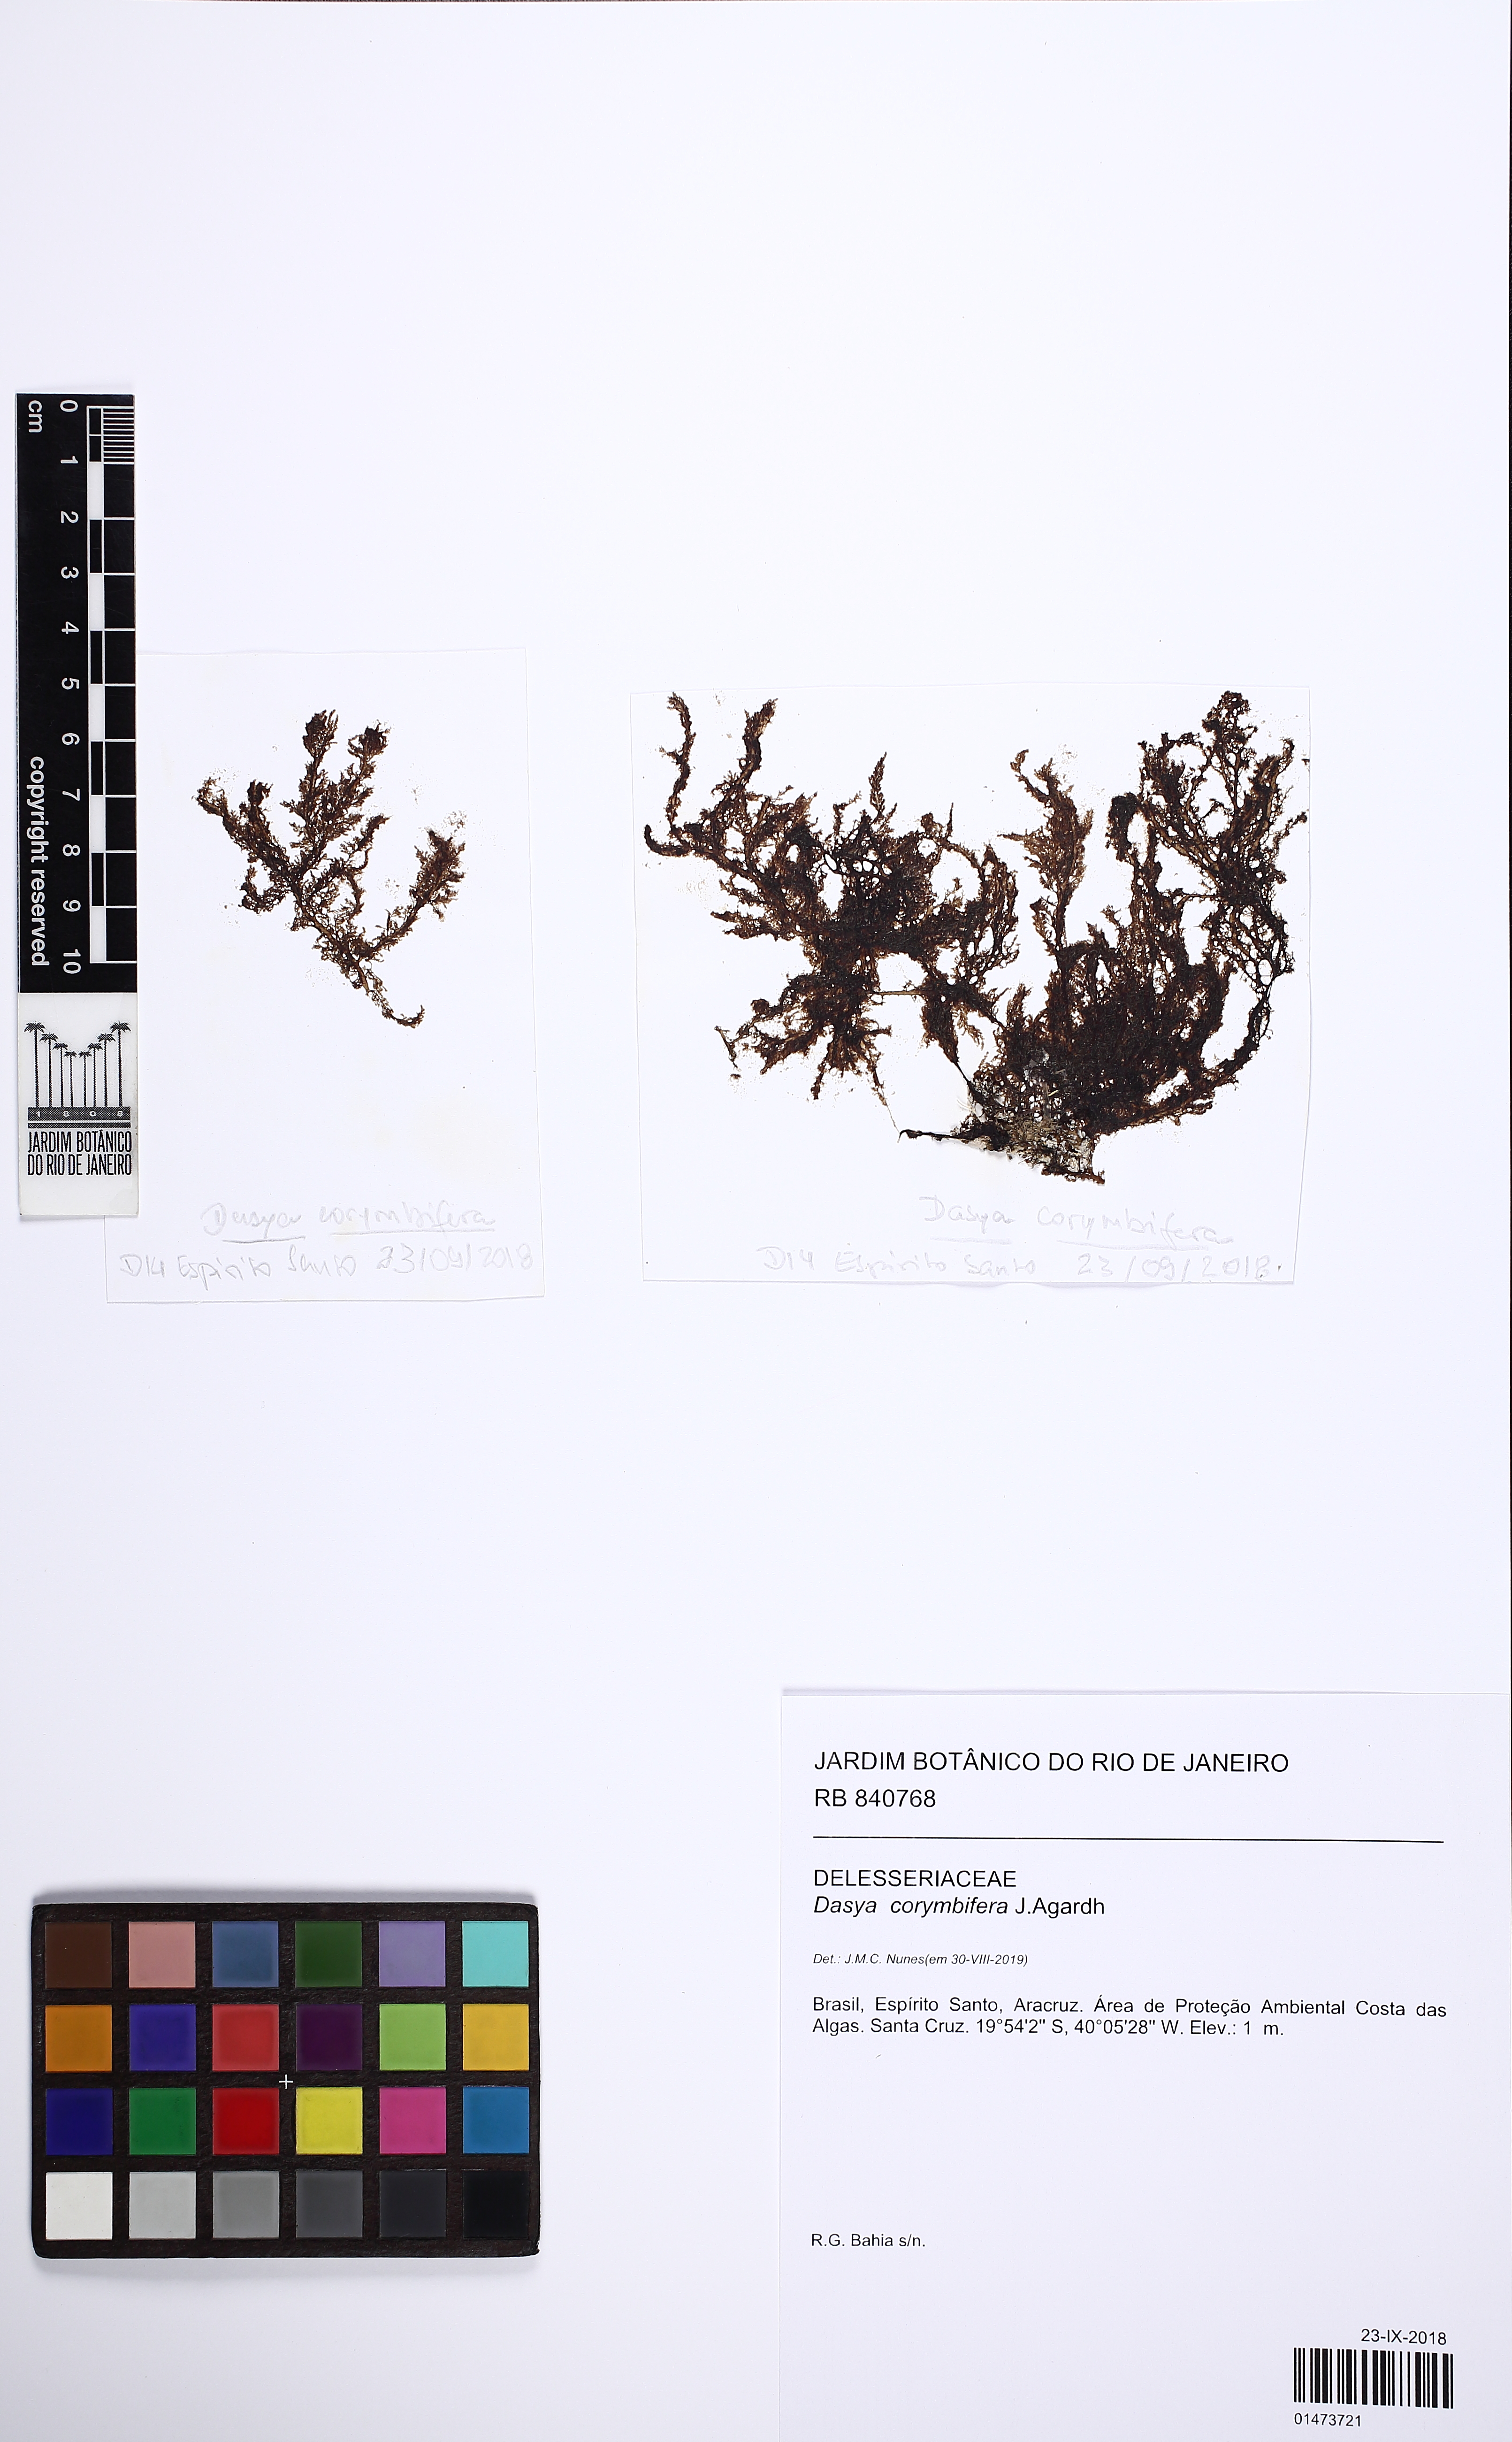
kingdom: Plantae
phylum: Rhodophyta
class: Florideophyceae
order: Ceramiales
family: Dasyaceae
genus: Dasya
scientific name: Dasya corymbifera
